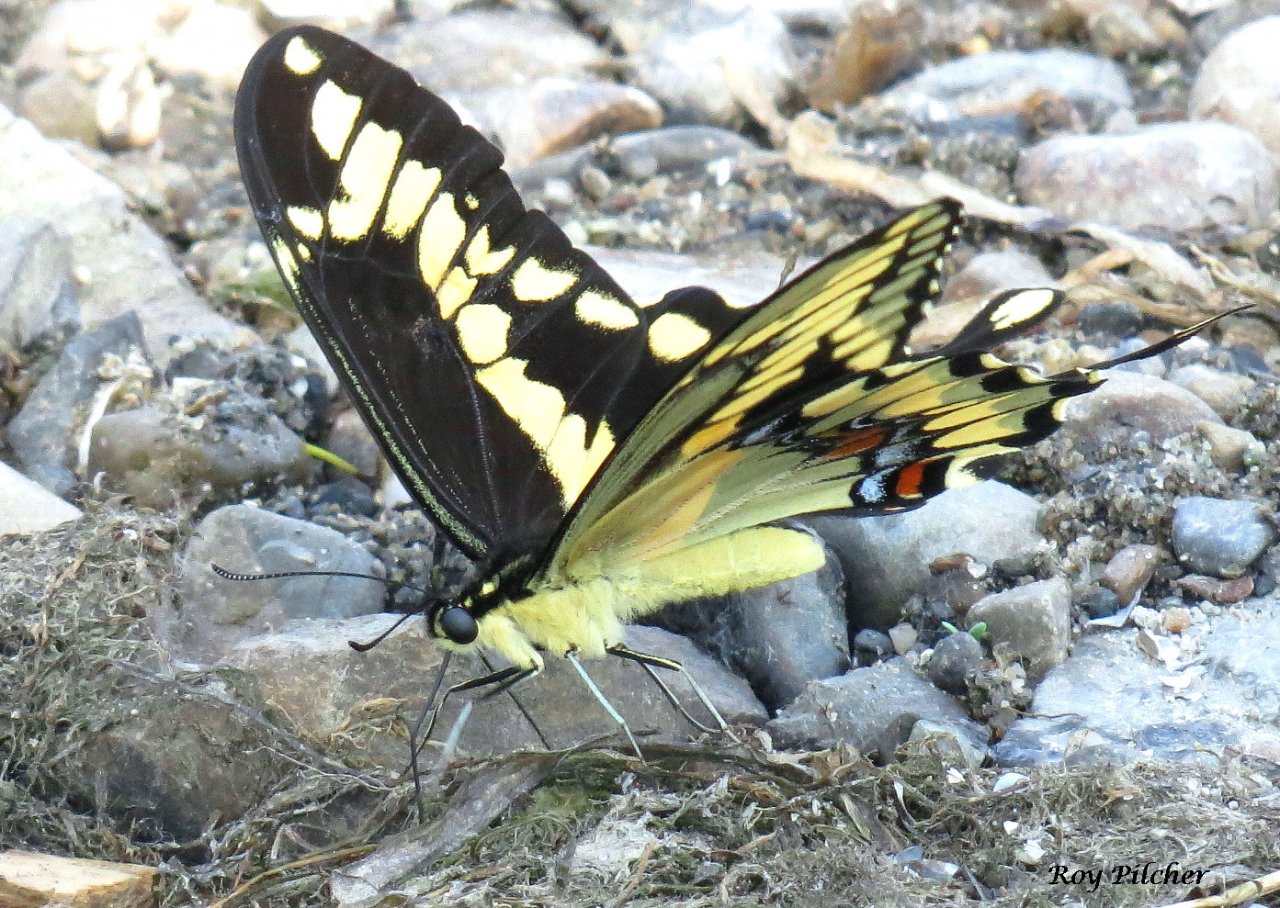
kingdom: Animalia
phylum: Arthropoda
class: Insecta
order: Lepidoptera
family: Papilionidae
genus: Papilio
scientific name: Papilio cresphontes
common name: Eastern Giant Swallowtail
